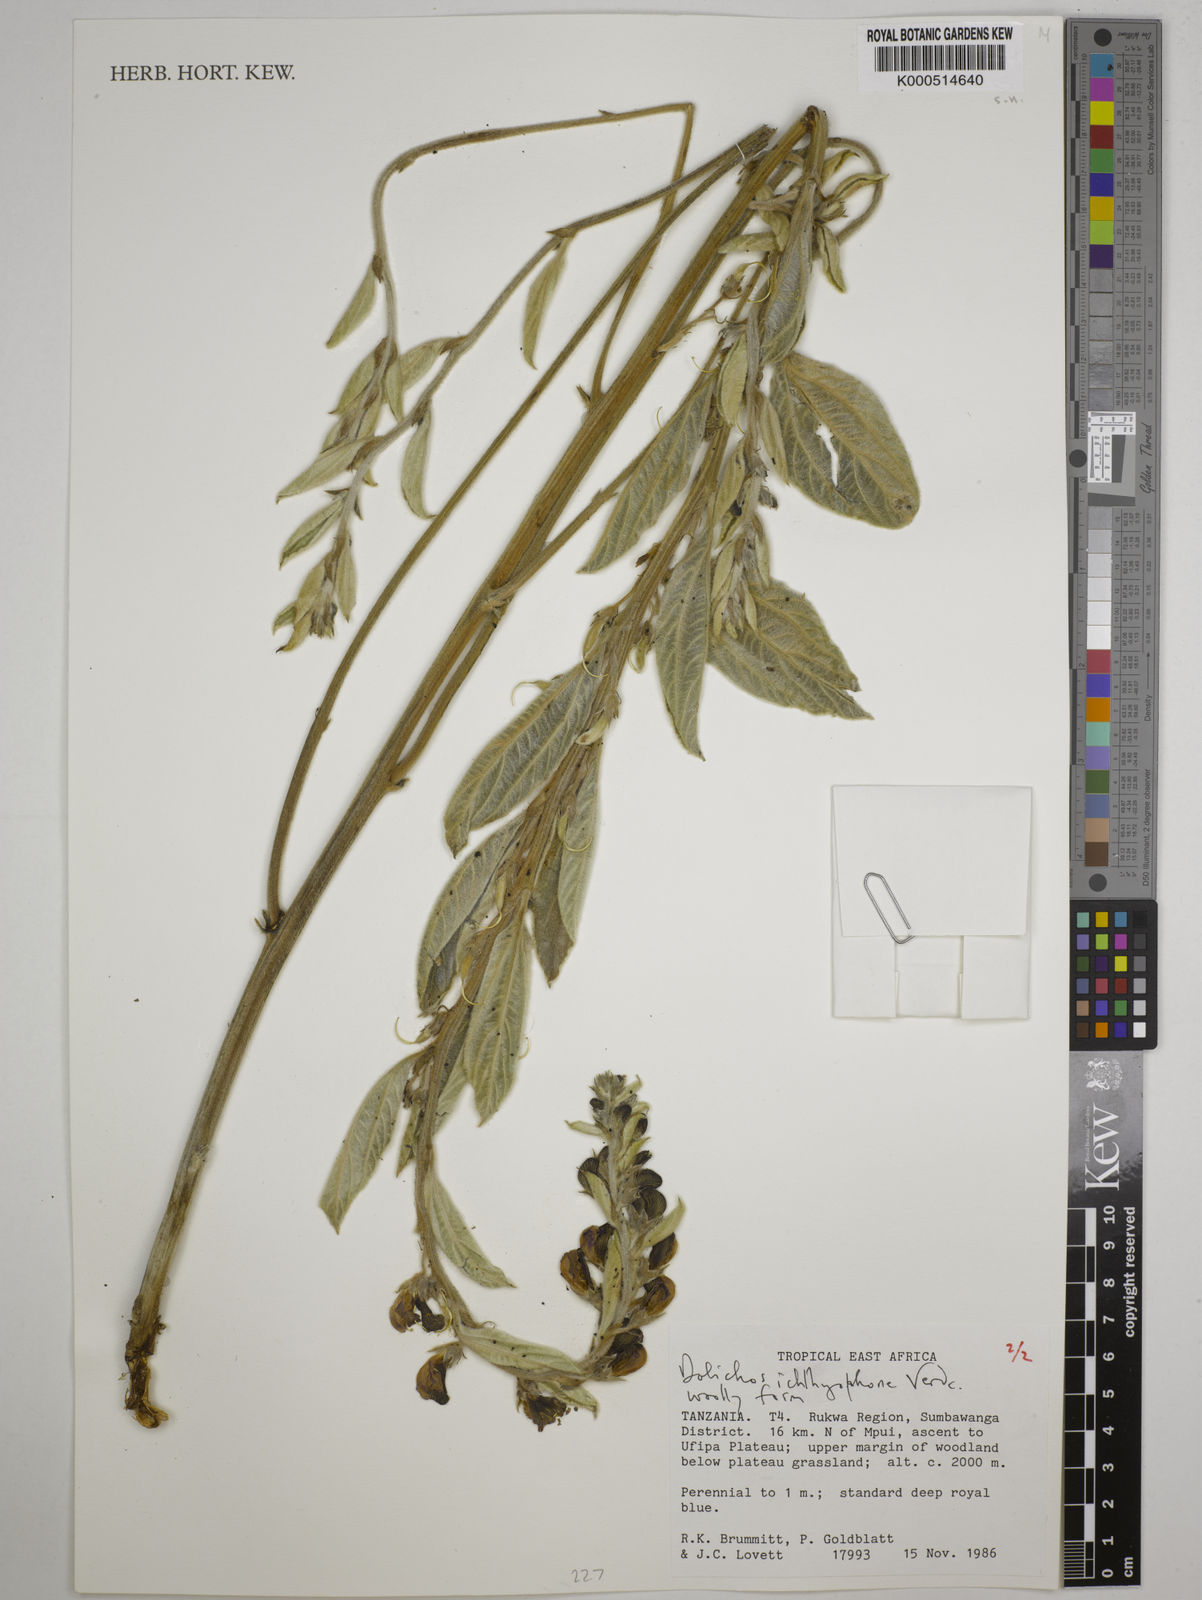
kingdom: Plantae
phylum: Tracheophyta
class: Magnoliopsida
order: Fabales
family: Fabaceae
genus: Dolichos
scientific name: Dolichos ichthyophone
